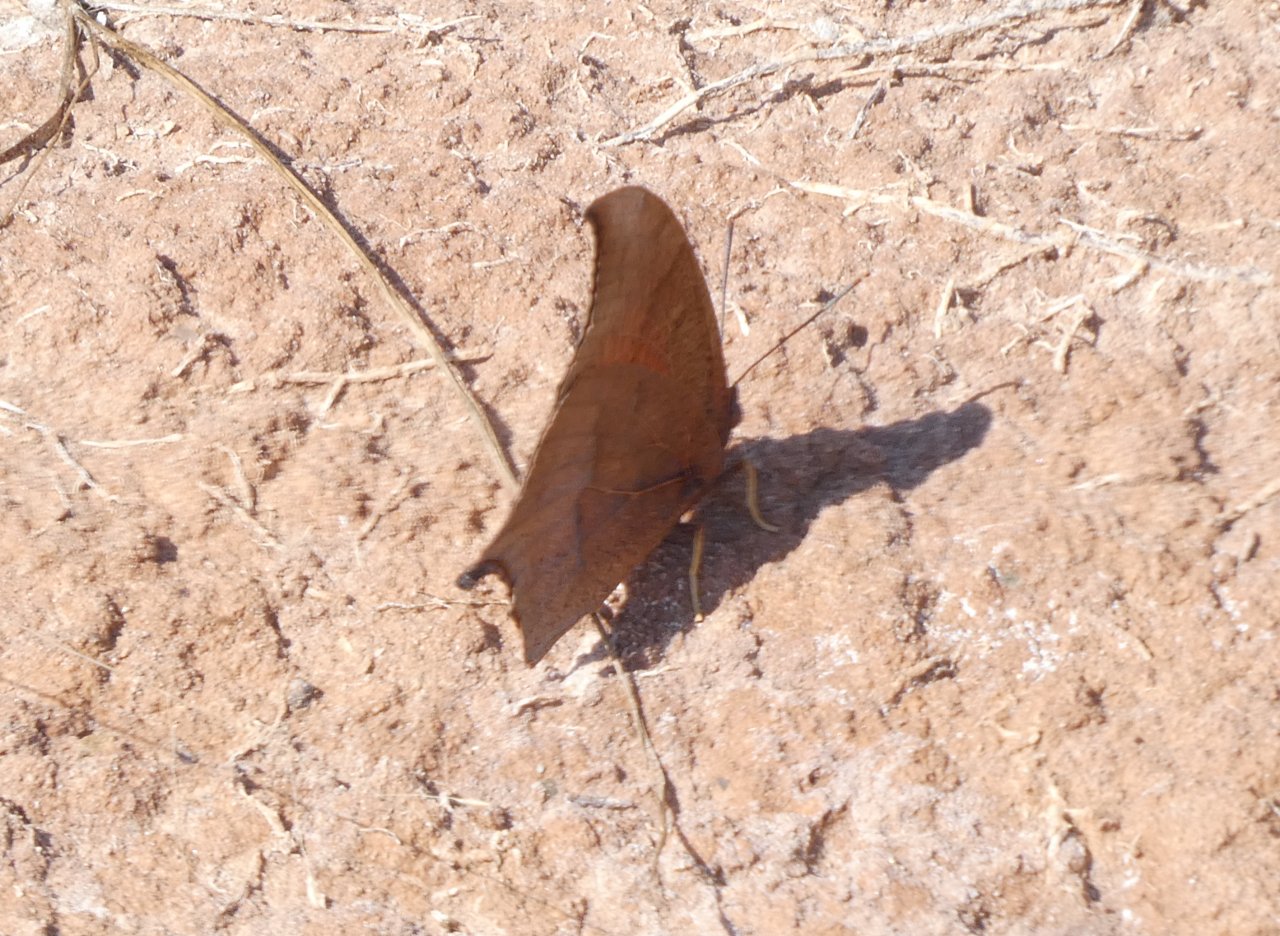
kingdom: Animalia
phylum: Arthropoda
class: Insecta
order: Lepidoptera
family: Nymphalidae
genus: Anaea
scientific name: Anaea andria
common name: Goatweed Leafwing
